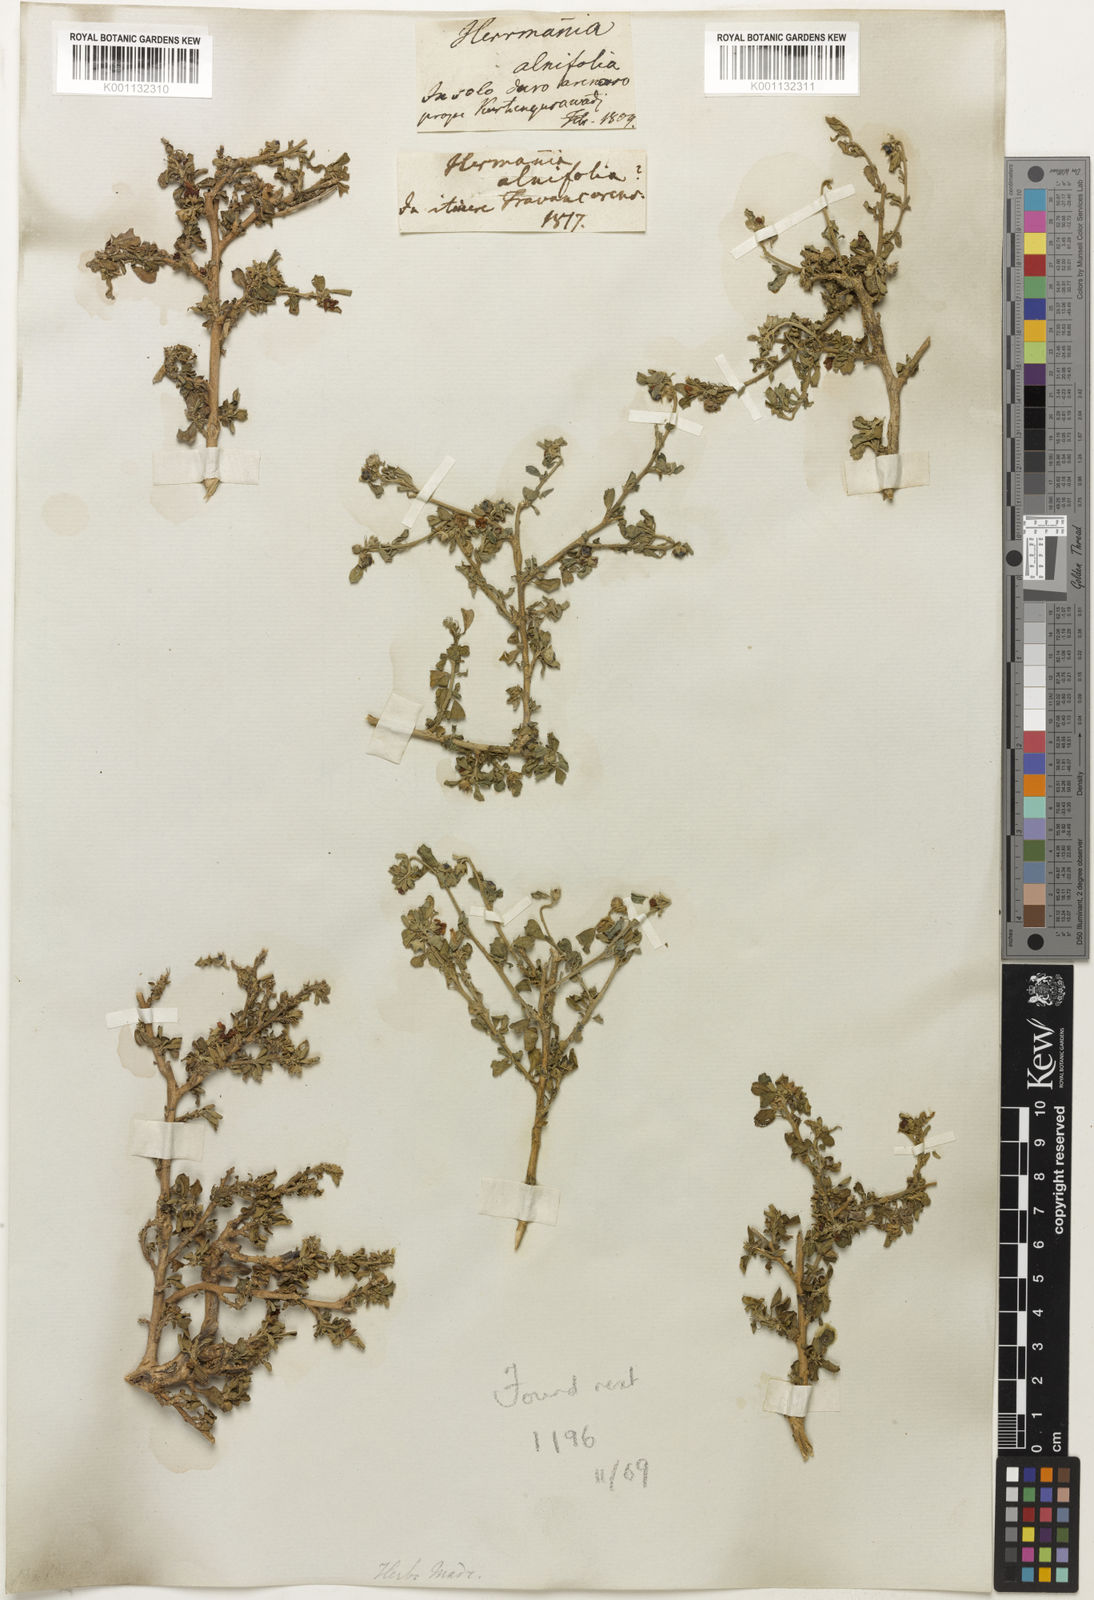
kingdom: Plantae
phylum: Tracheophyta
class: Magnoliopsida
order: Malvales
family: Malvaceae
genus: Melochia
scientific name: Melochia
